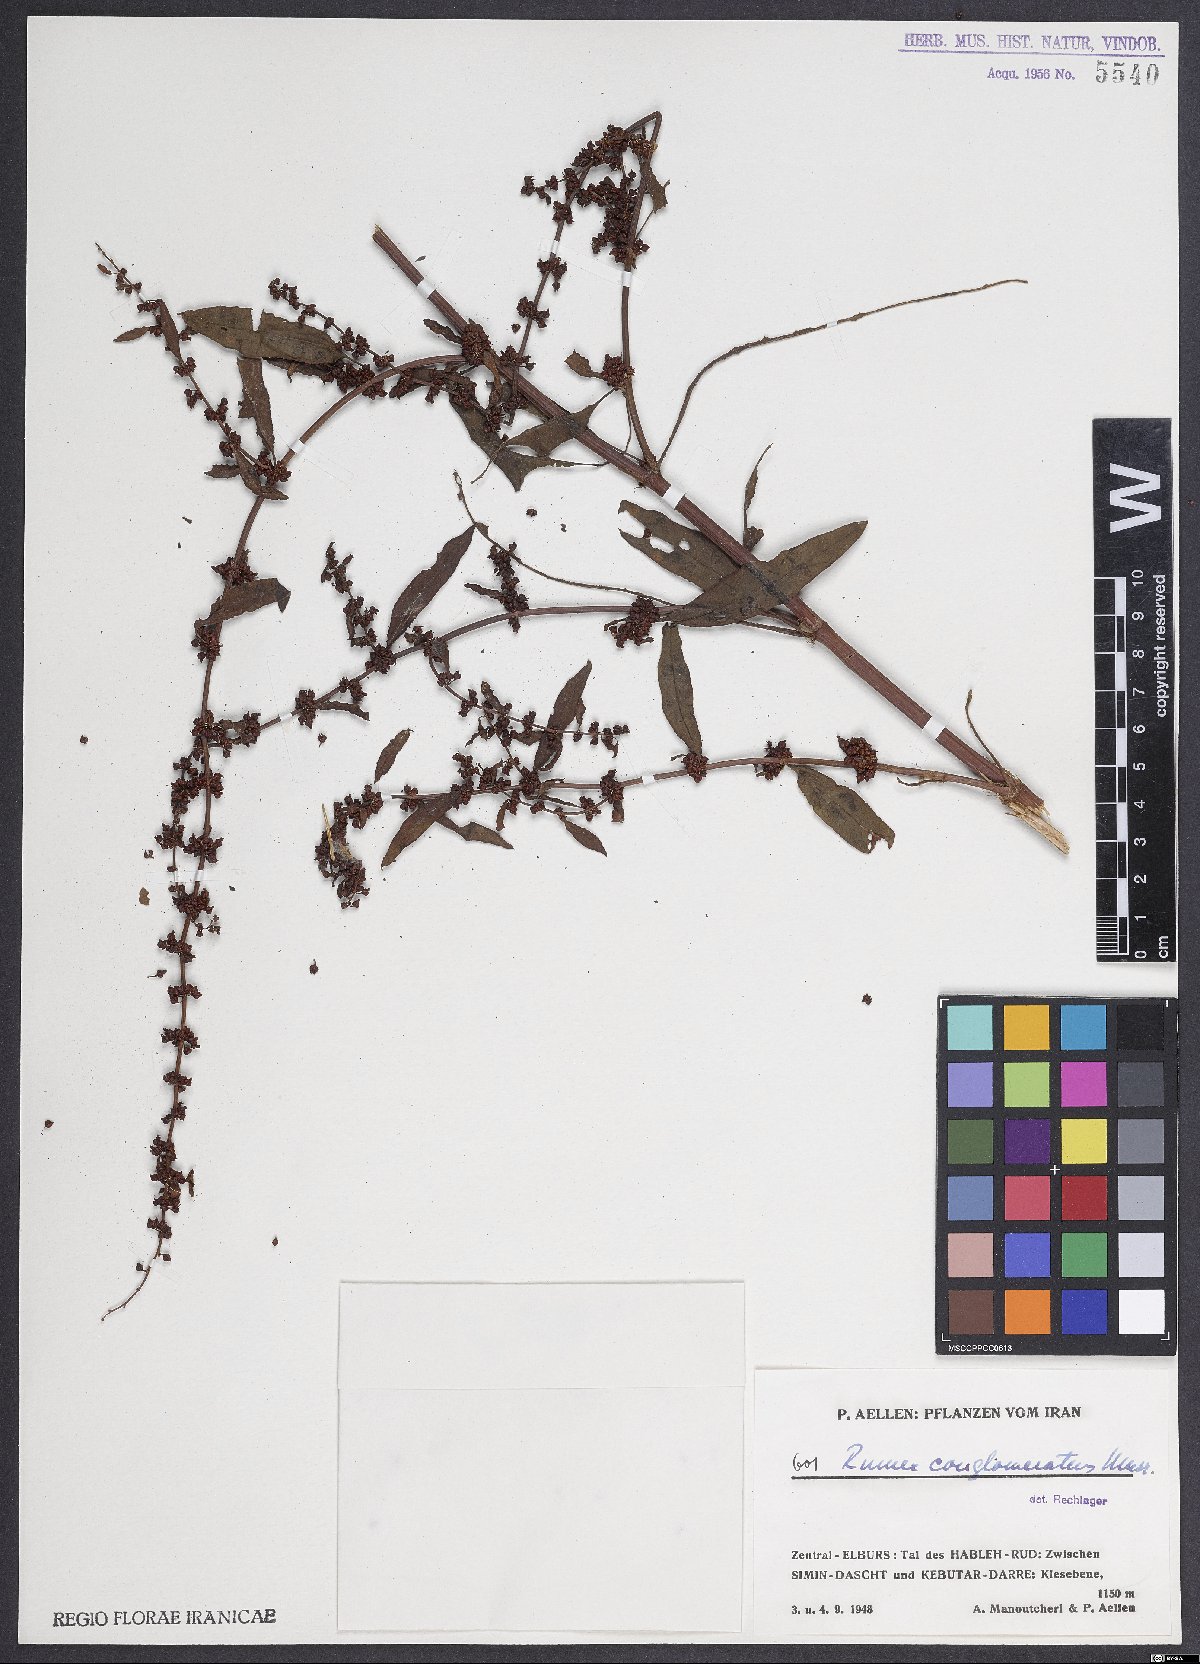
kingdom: Plantae
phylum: Tracheophyta
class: Magnoliopsida
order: Caryophyllales
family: Polygonaceae
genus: Rumex
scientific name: Rumex conglomeratus
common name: Clustered dock
